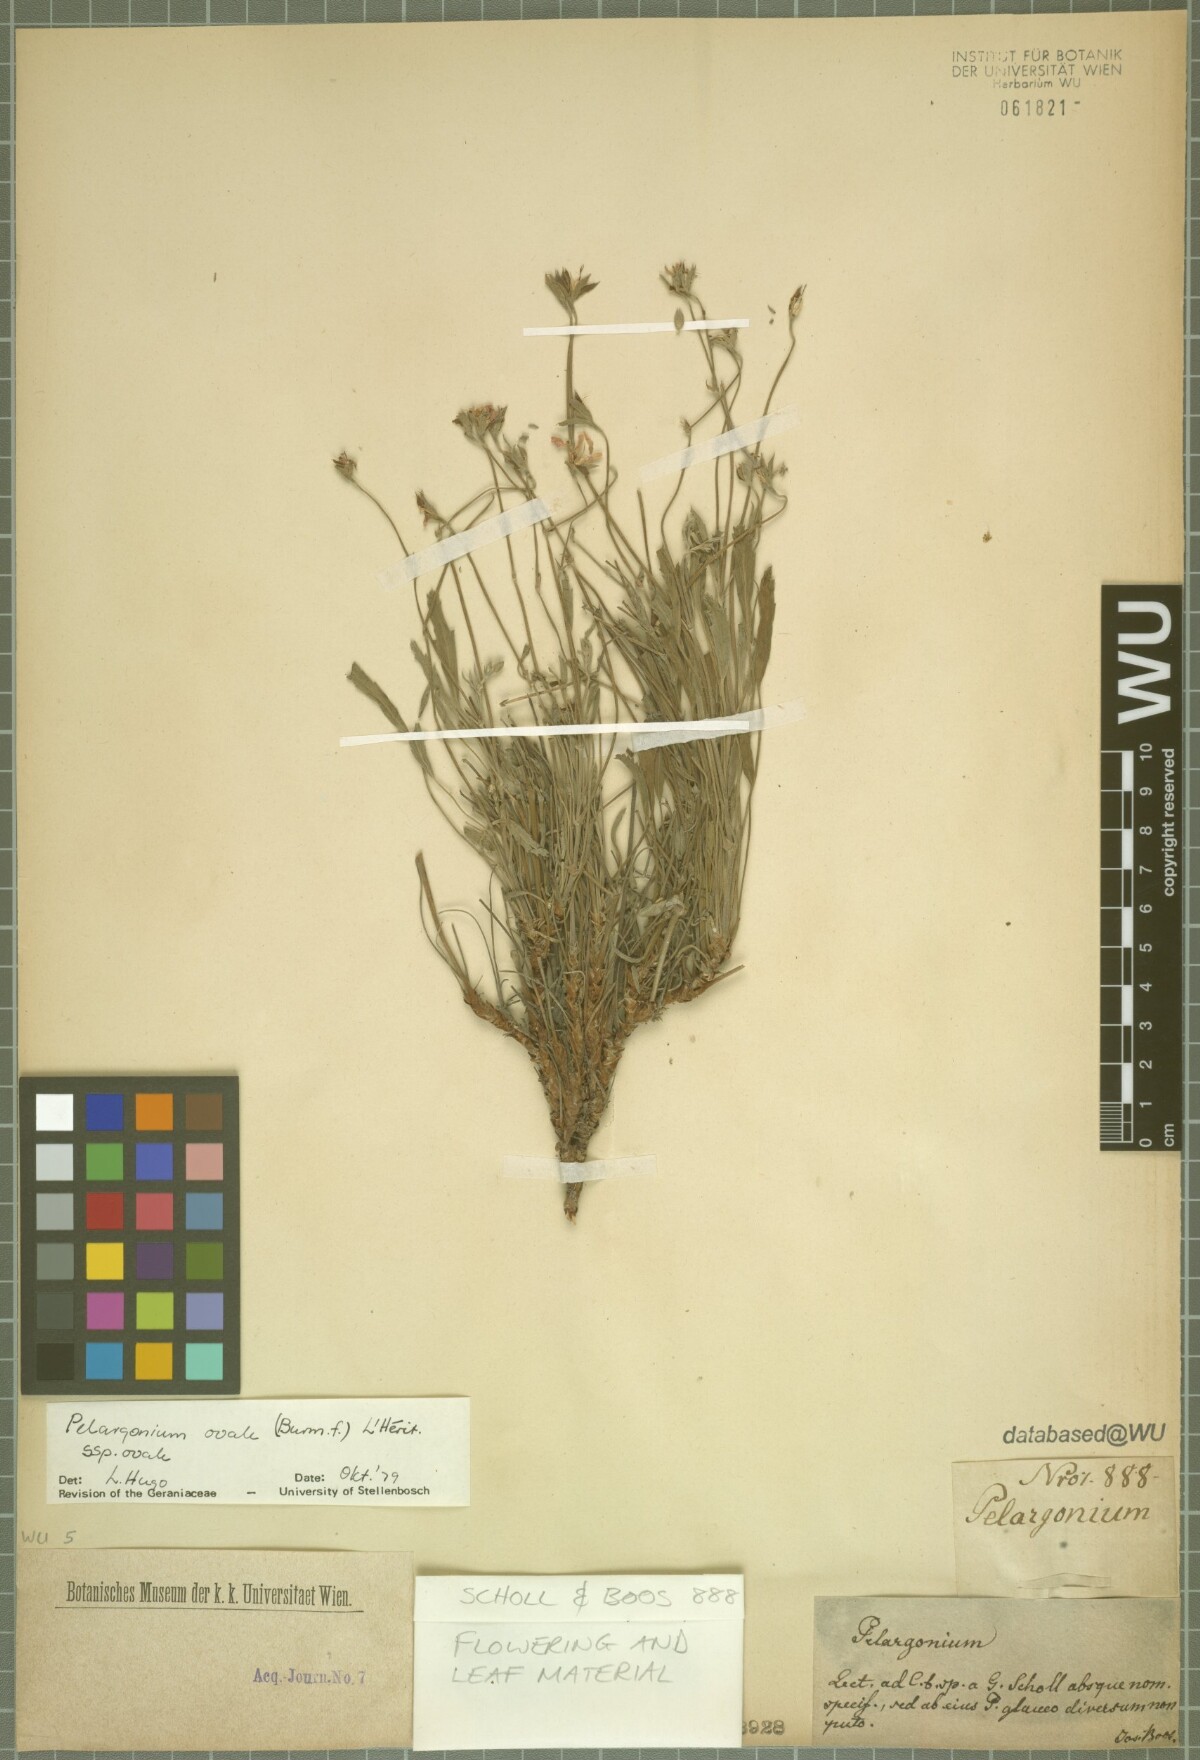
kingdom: Plantae
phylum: Tracheophyta
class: Magnoliopsida
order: Geraniales
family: Geraniaceae
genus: Pelargonium
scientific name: Pelargonium ovale
